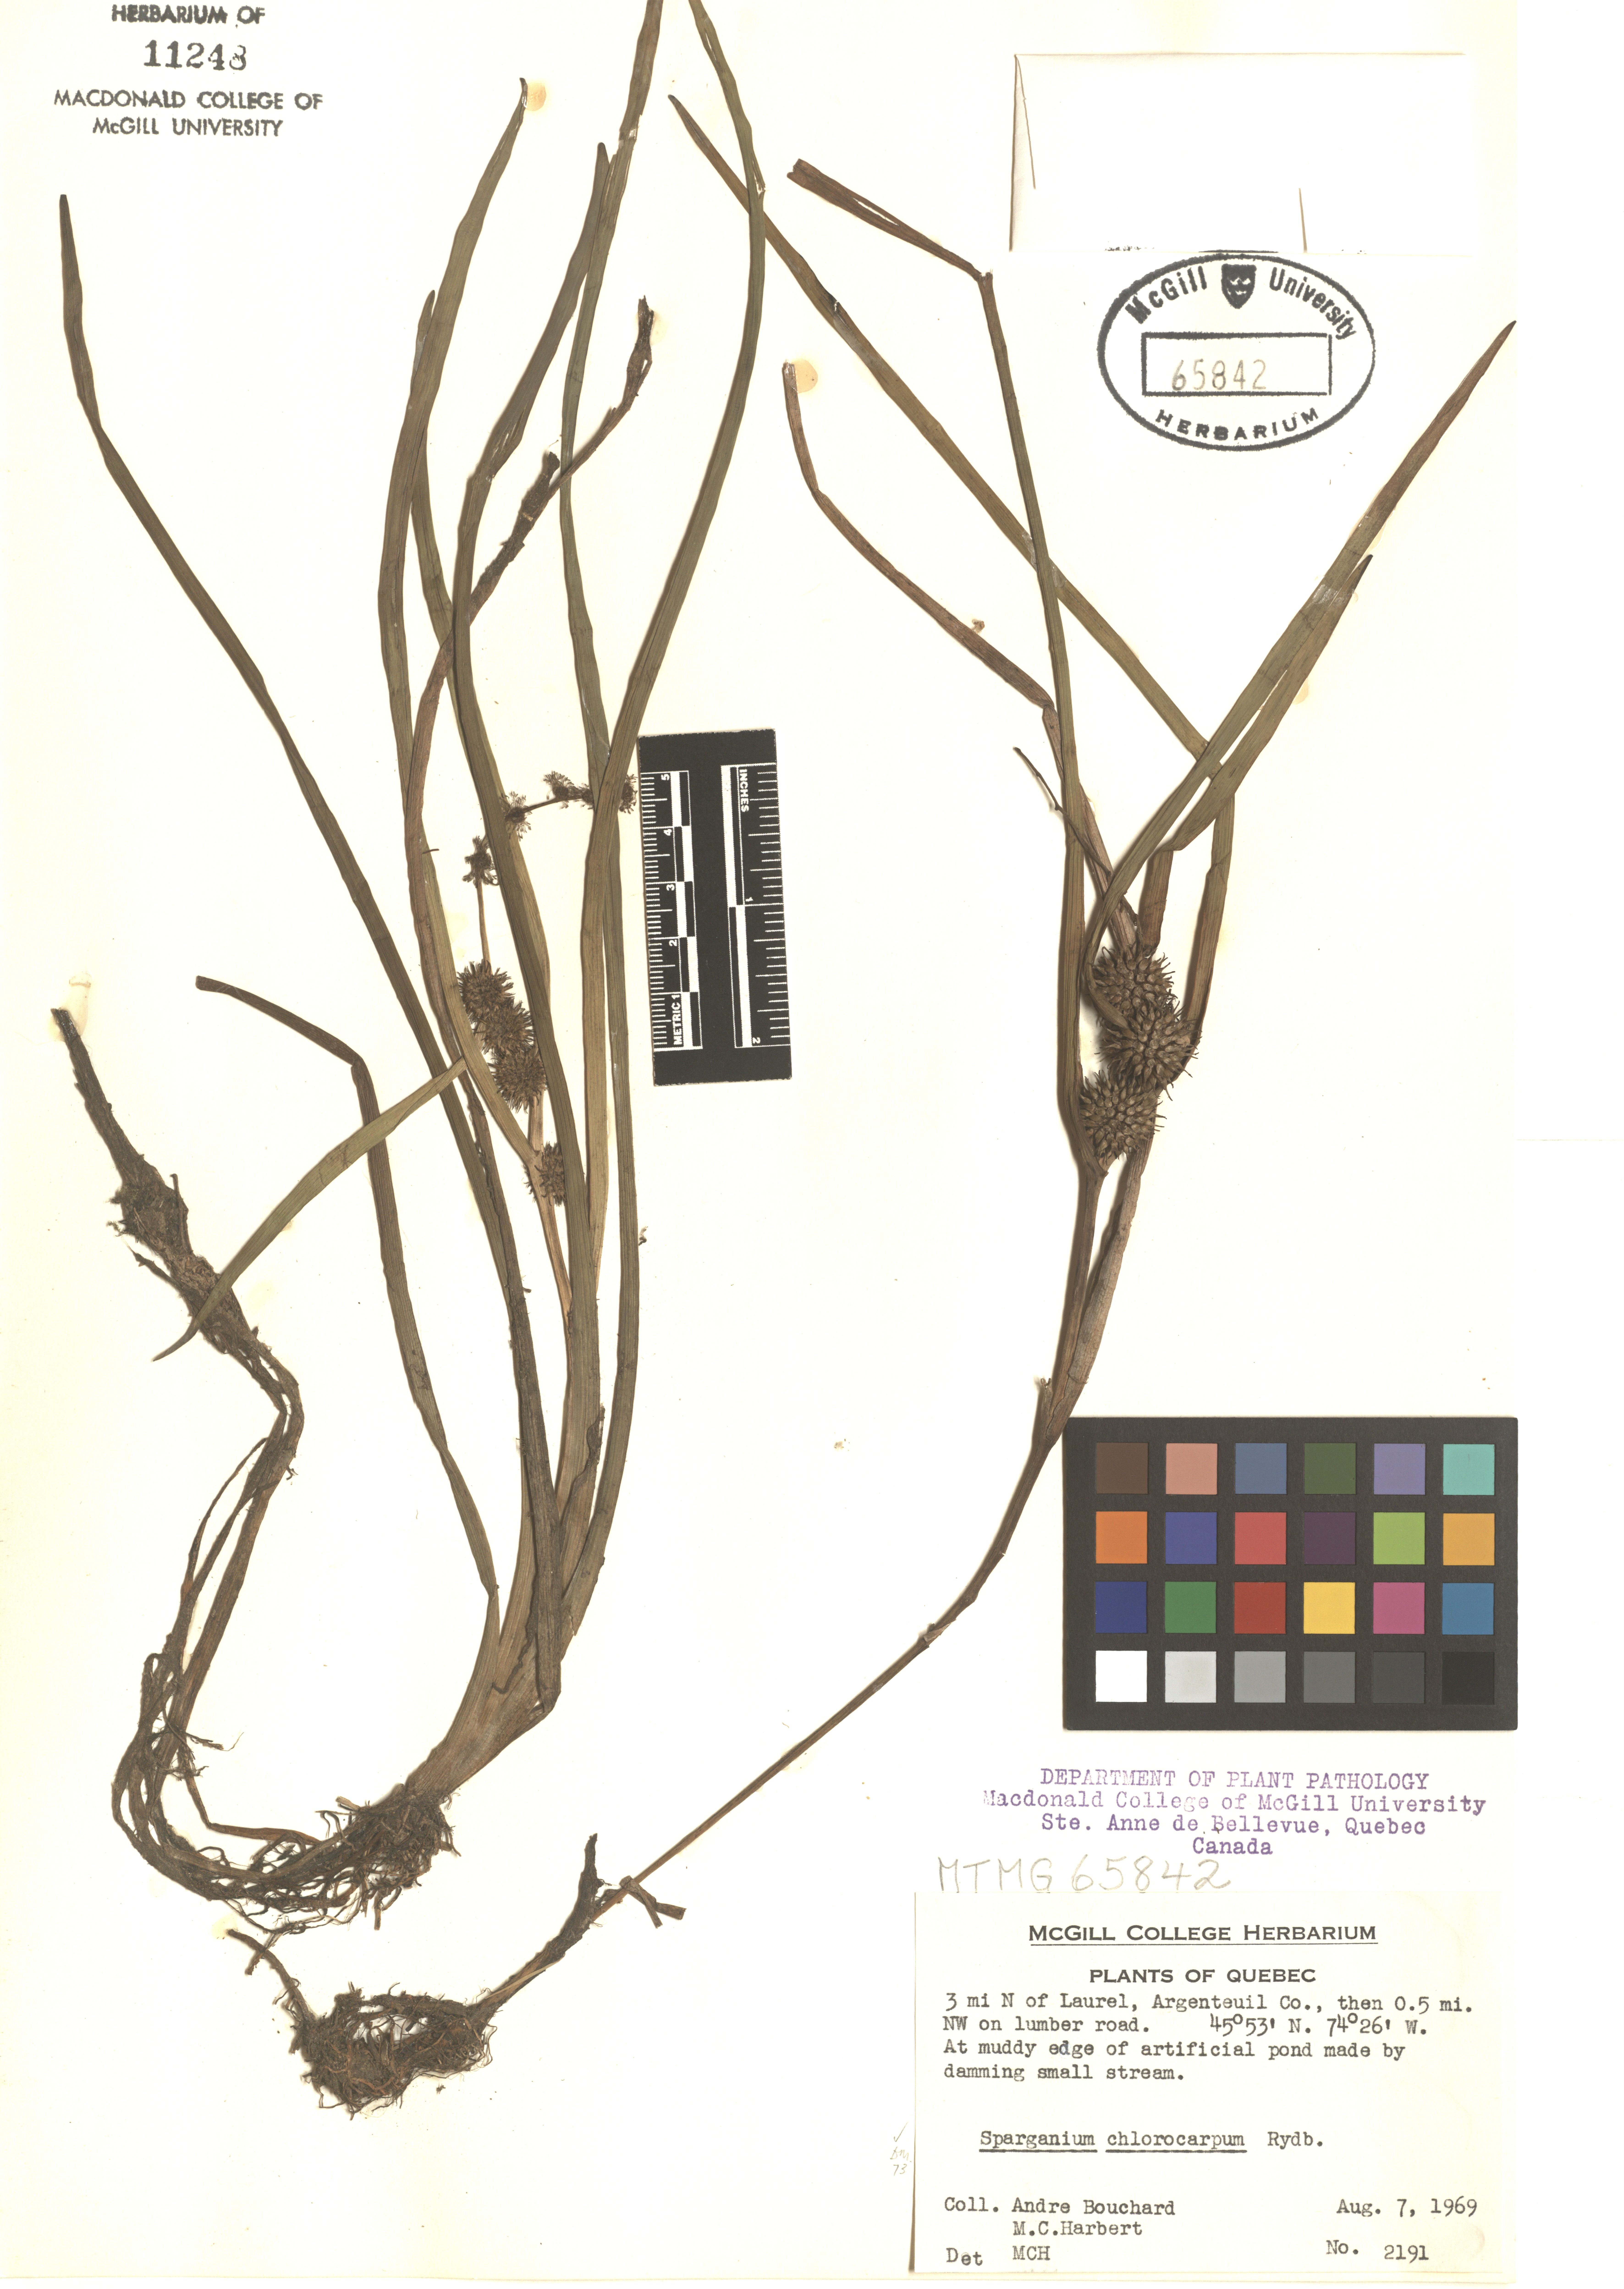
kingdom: Plantae
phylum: Tracheophyta
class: Liliopsida
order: Poales
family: Typhaceae
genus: Sparganium
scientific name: Sparganium emersum
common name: Unbranched bur-reed
